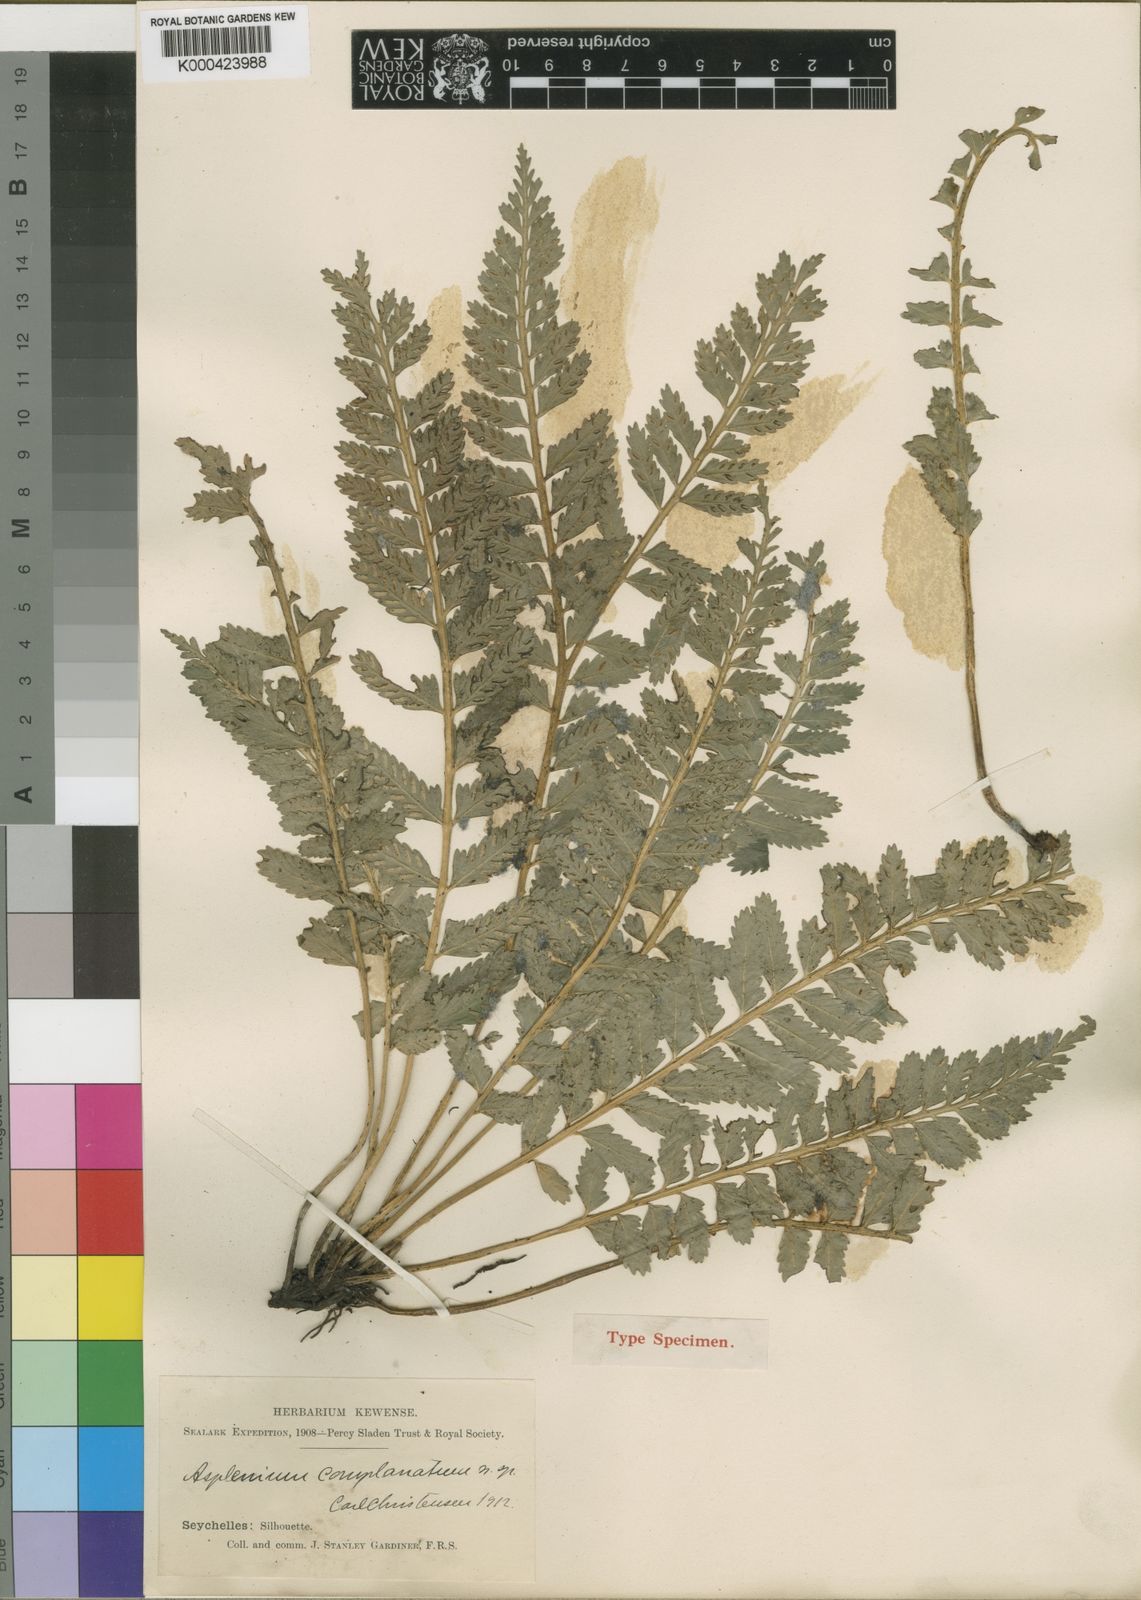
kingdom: Plantae
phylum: Tracheophyta
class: Polypodiopsida
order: Polypodiales
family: Aspleniaceae
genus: Asplenium
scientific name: Asplenium tenerum
